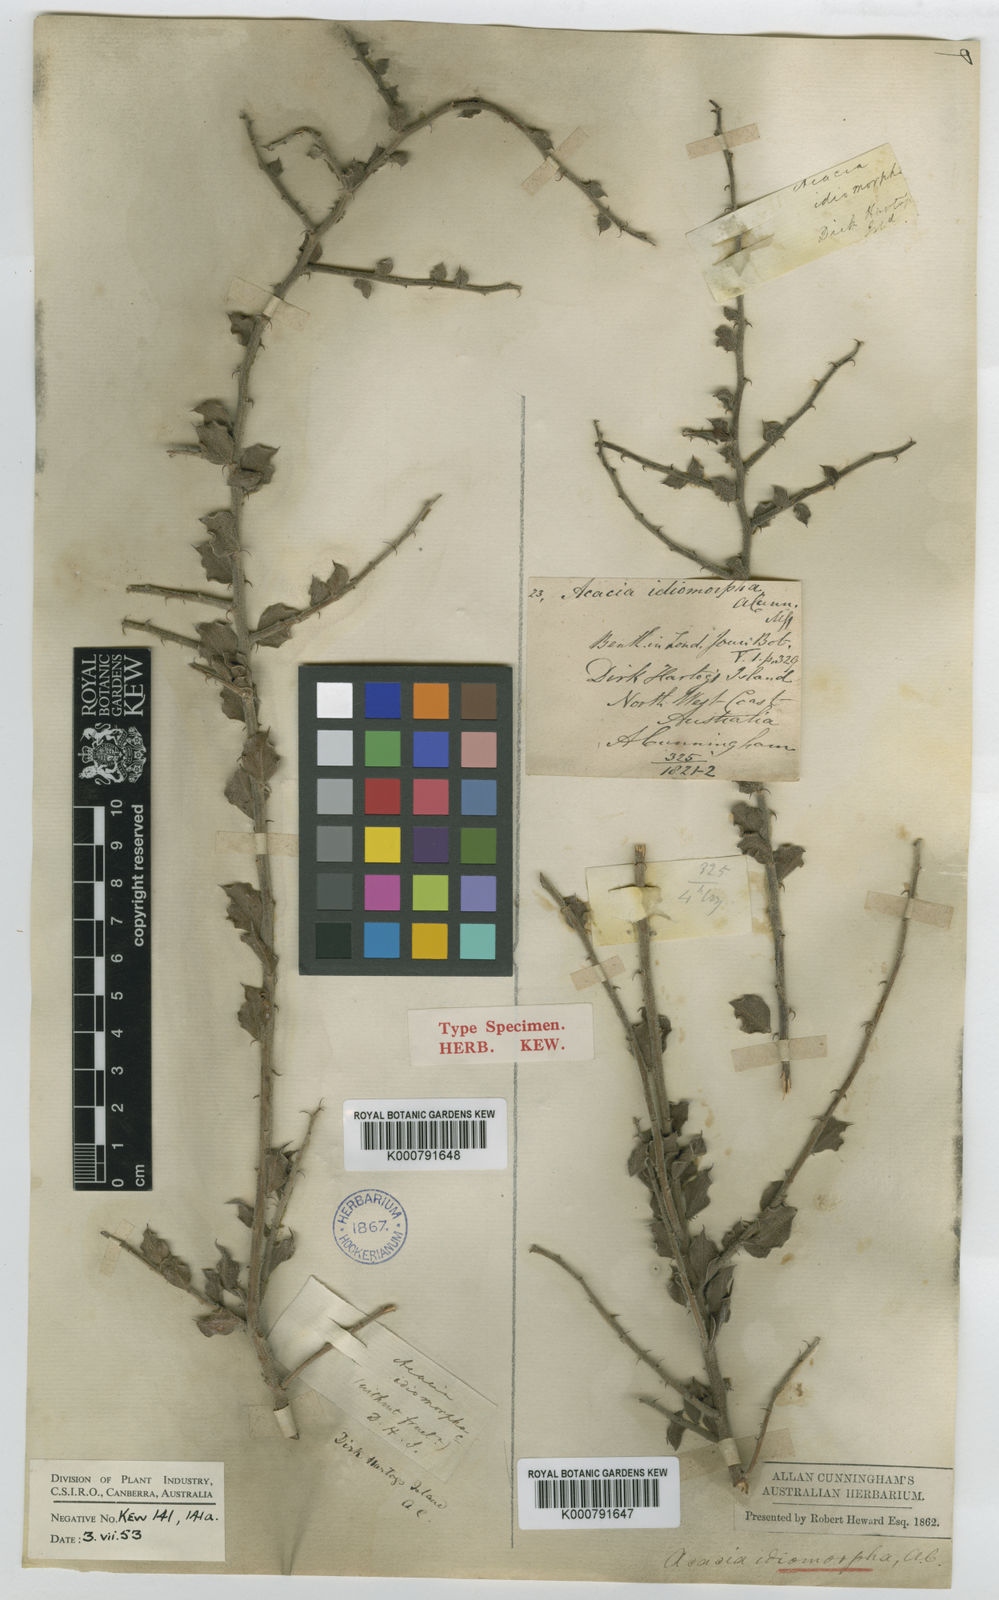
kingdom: Plantae
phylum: Tracheophyta
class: Magnoliopsida
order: Fabales
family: Fabaceae
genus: Acacia
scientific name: Acacia idiomorpha
